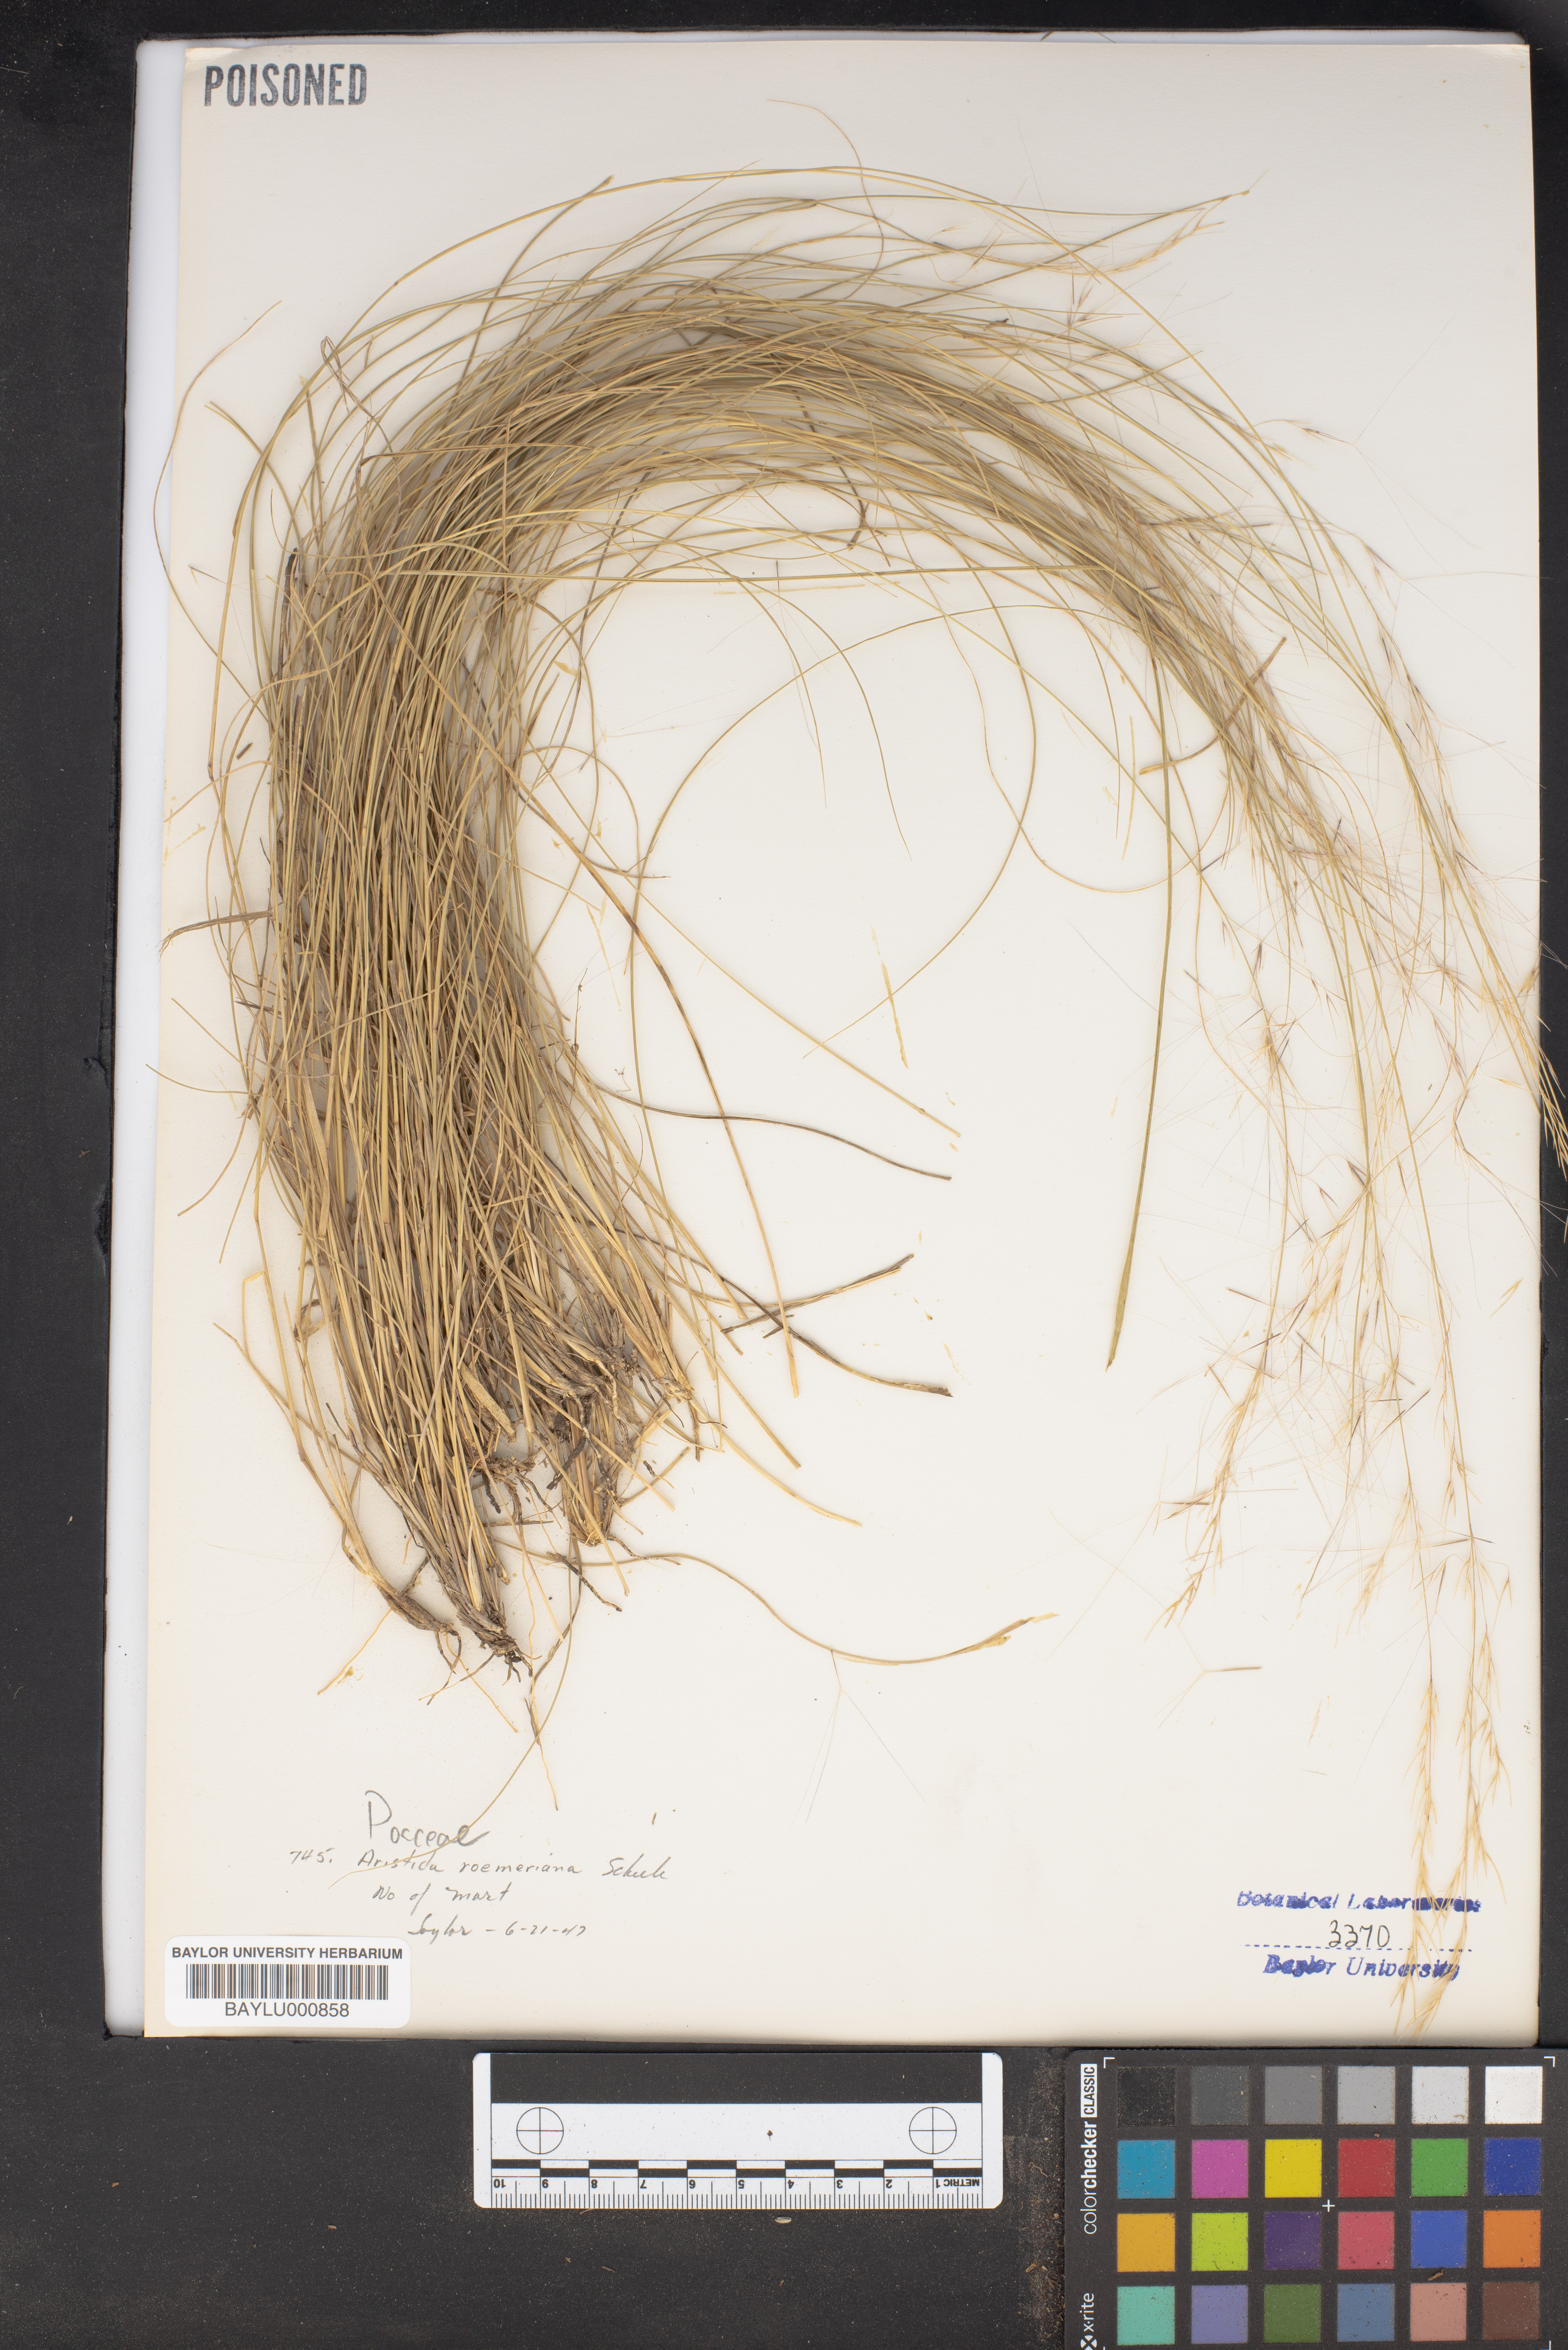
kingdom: Plantae
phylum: Tracheophyta
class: Liliopsida
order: Poales
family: Poaceae
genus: Aristida
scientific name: Aristida purpurea
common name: Purple threeawn
